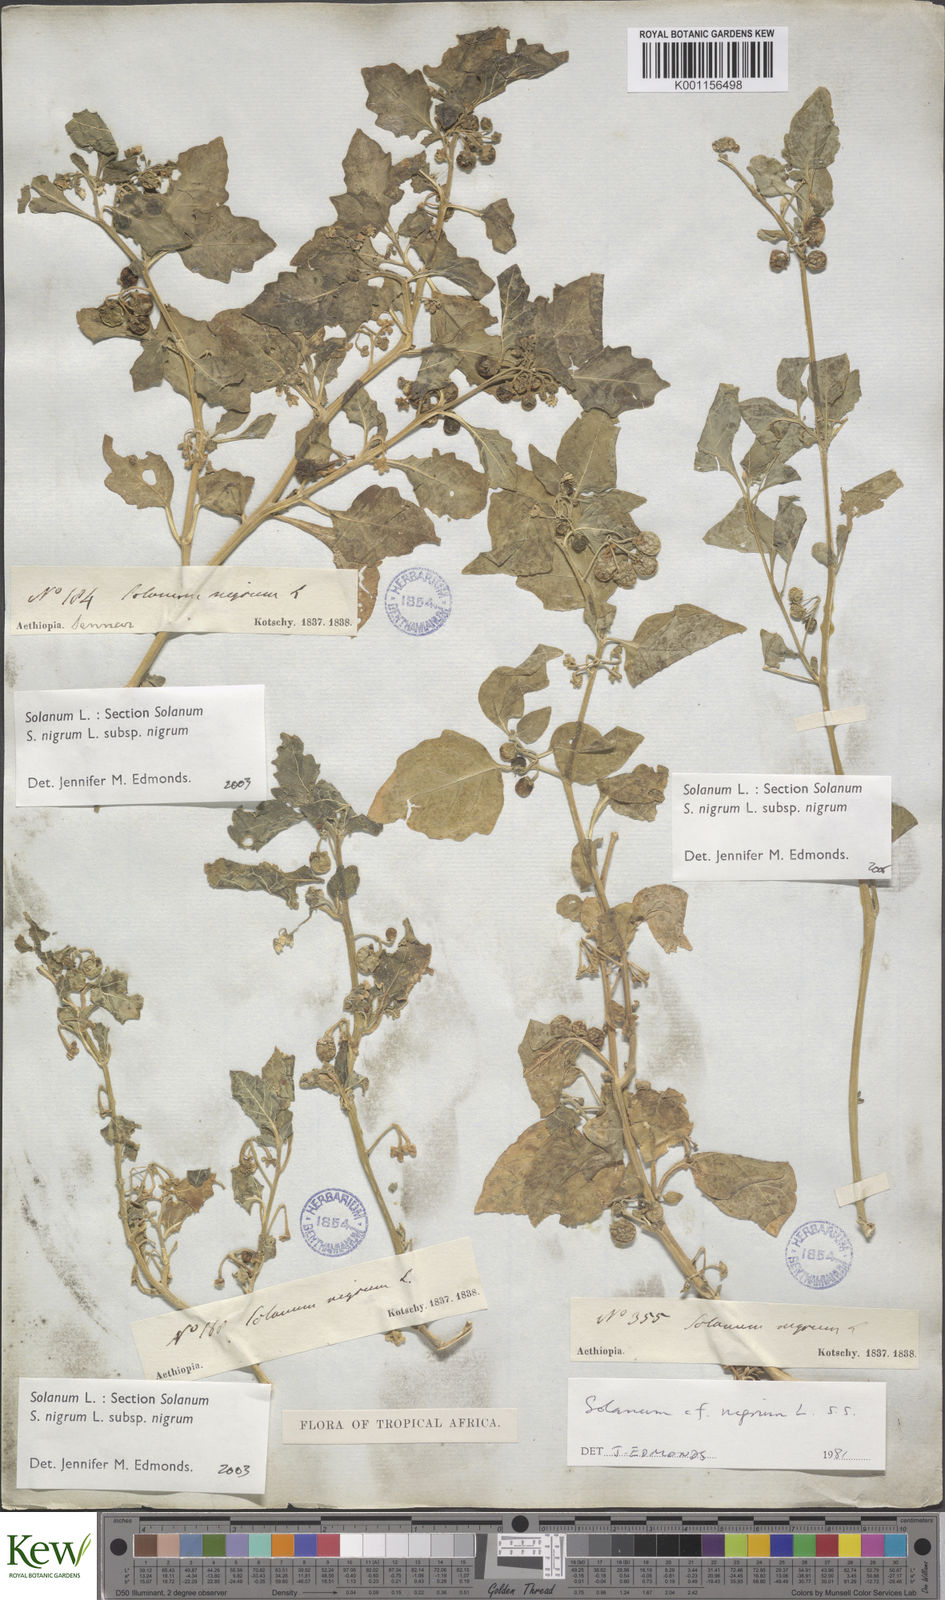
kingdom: Plantae
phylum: Tracheophyta
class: Magnoliopsida
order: Solanales
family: Solanaceae
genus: Solanum
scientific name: Solanum nigrum
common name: Black nightshade
